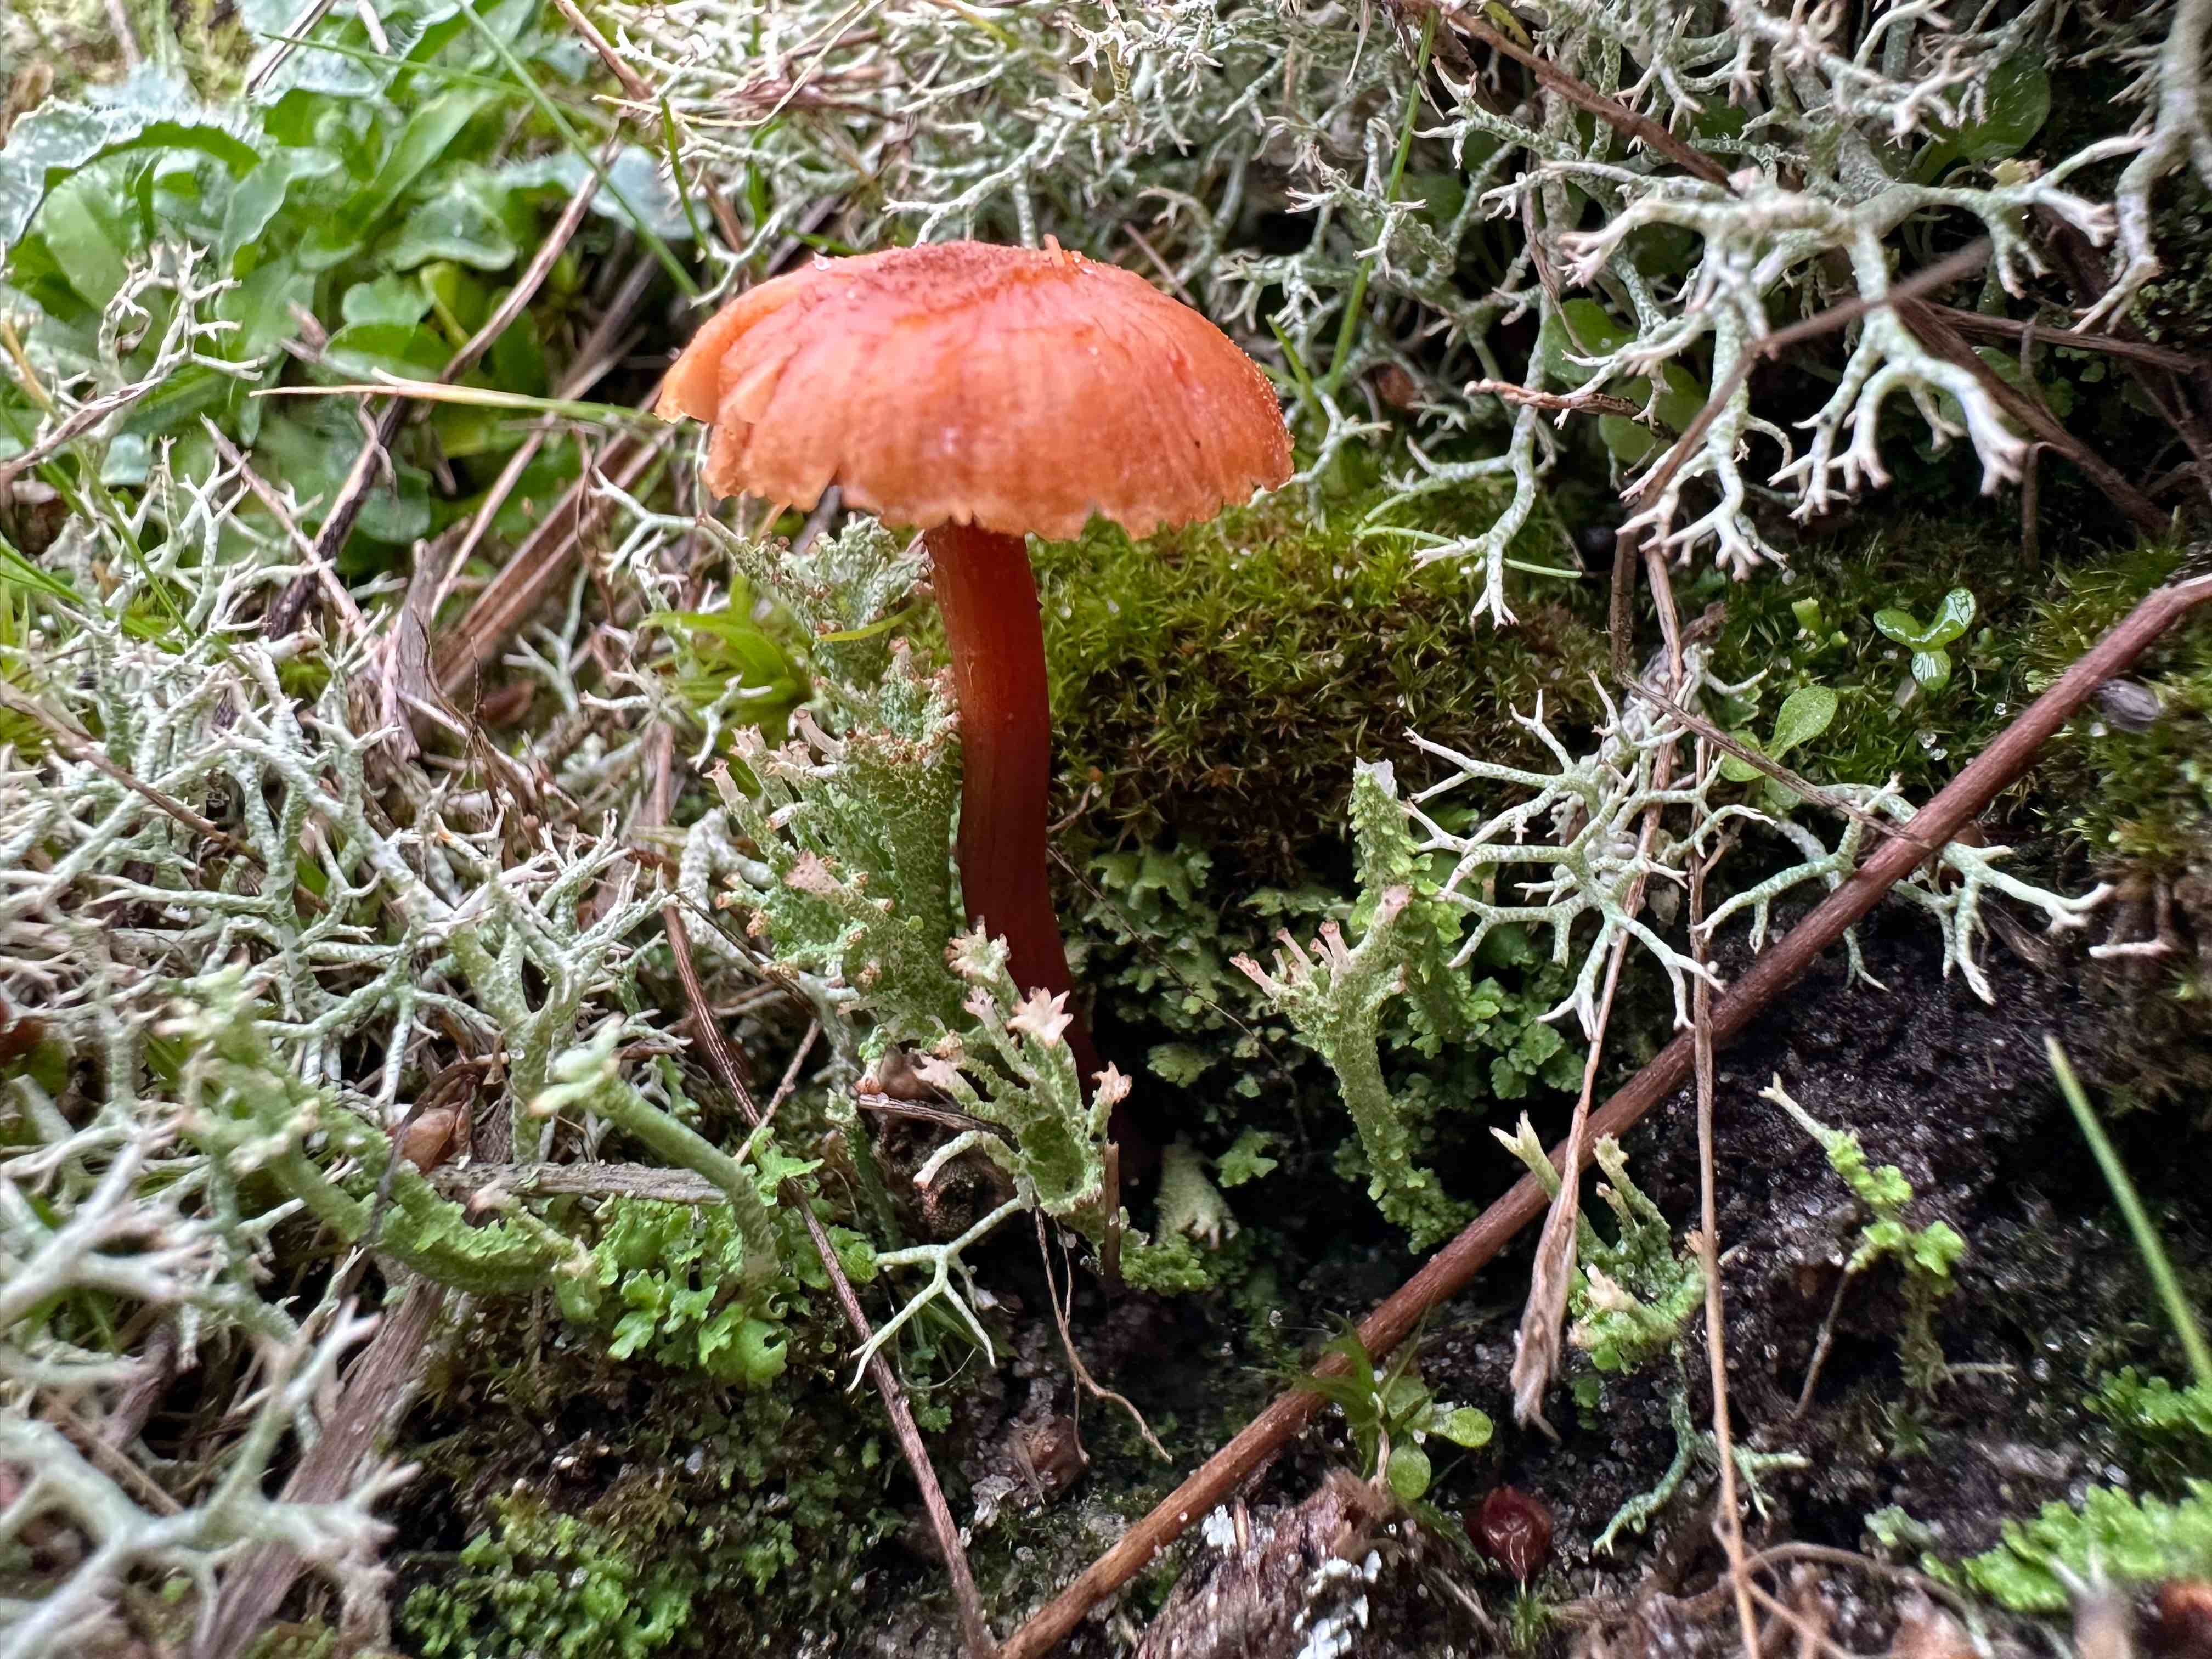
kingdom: Fungi
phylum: Basidiomycota
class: Agaricomycetes
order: Agaricales
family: Hydnangiaceae
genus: Laccaria
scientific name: Laccaria laccata
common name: rød ametysthat
